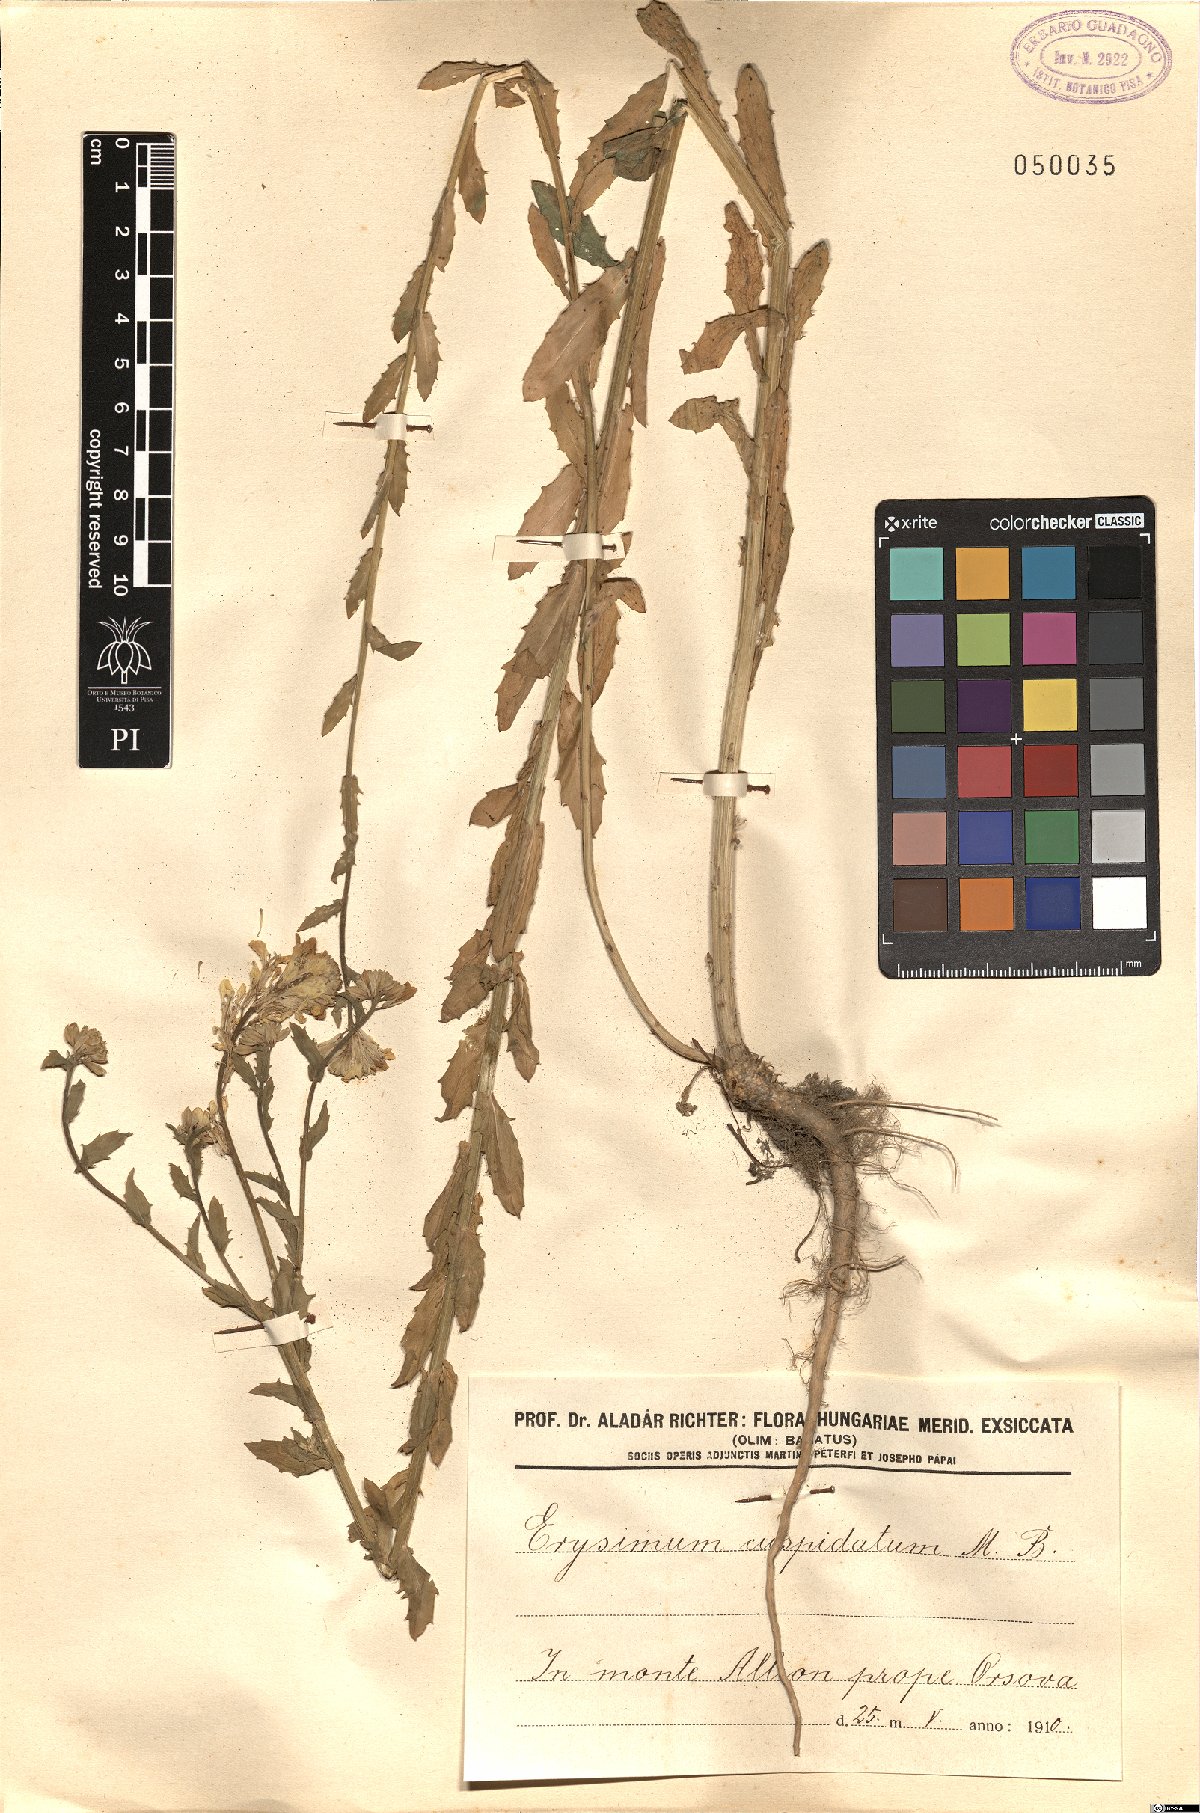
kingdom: Plantae
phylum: Tracheophyta
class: Magnoliopsida
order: Brassicales
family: Brassicaceae
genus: Erysimum
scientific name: Erysimum cuspidatum
